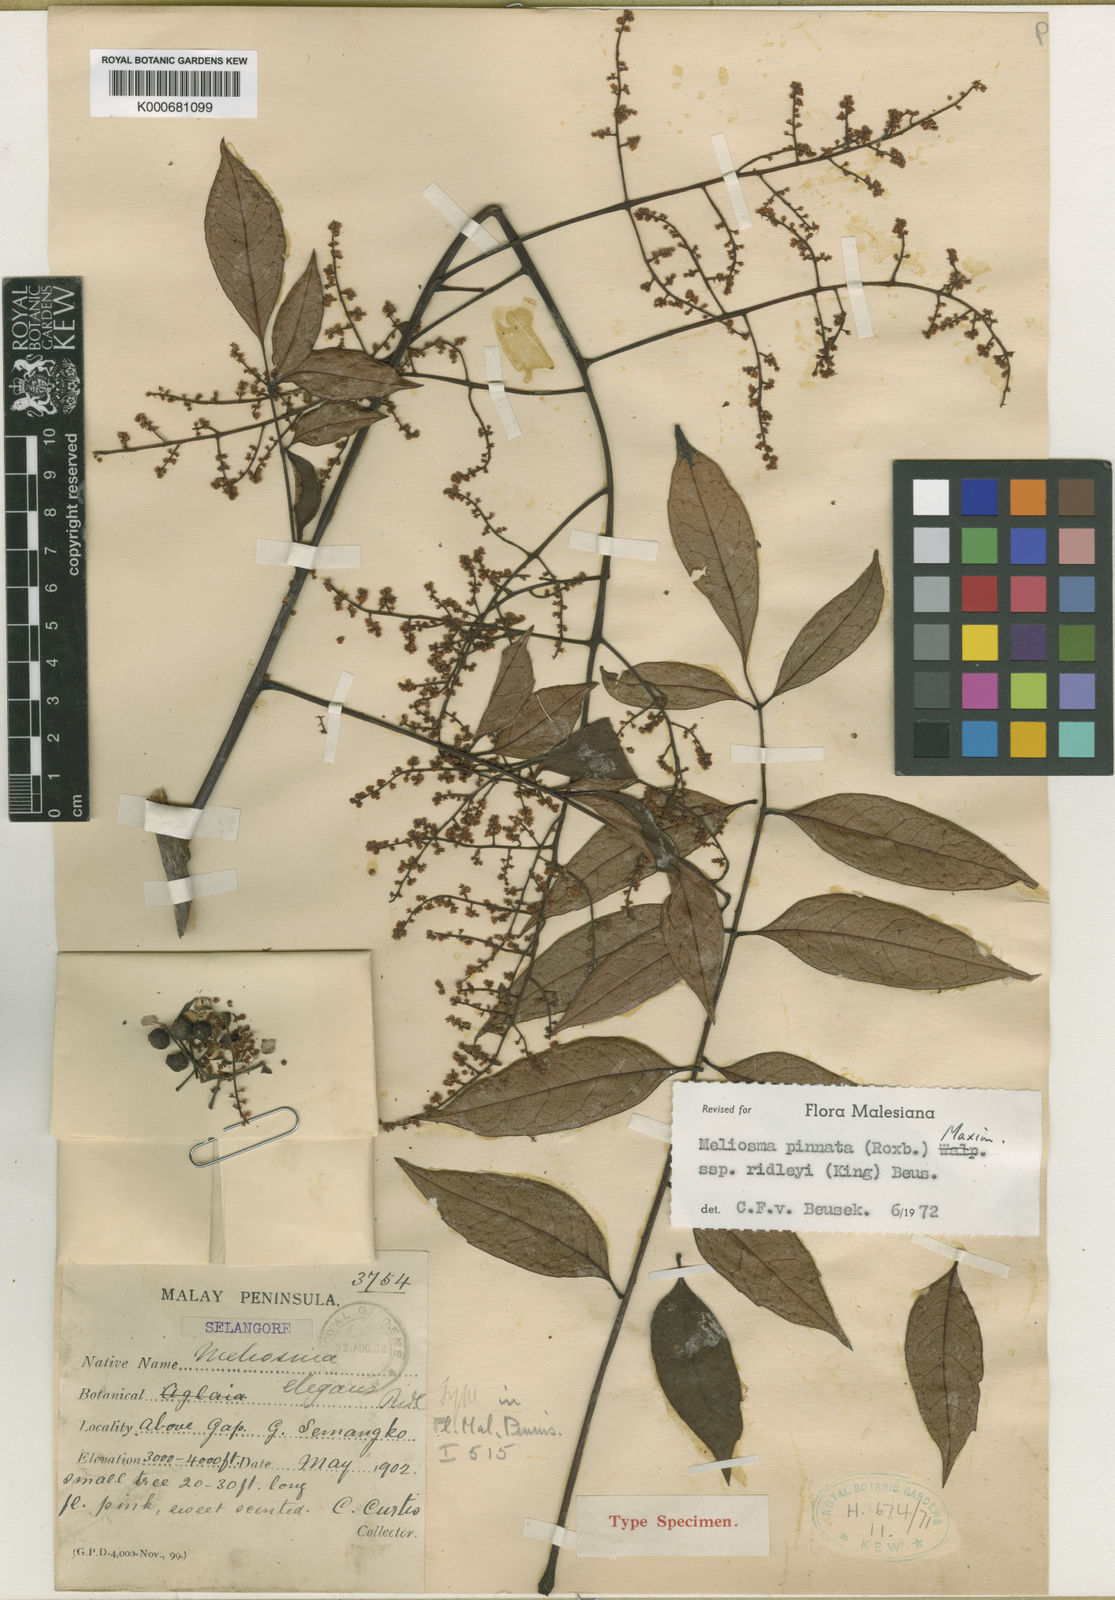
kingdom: Plantae
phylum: Tracheophyta
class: Magnoliopsida
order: Proteales
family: Sabiaceae
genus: Meliosma
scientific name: Meliosma pinnata
